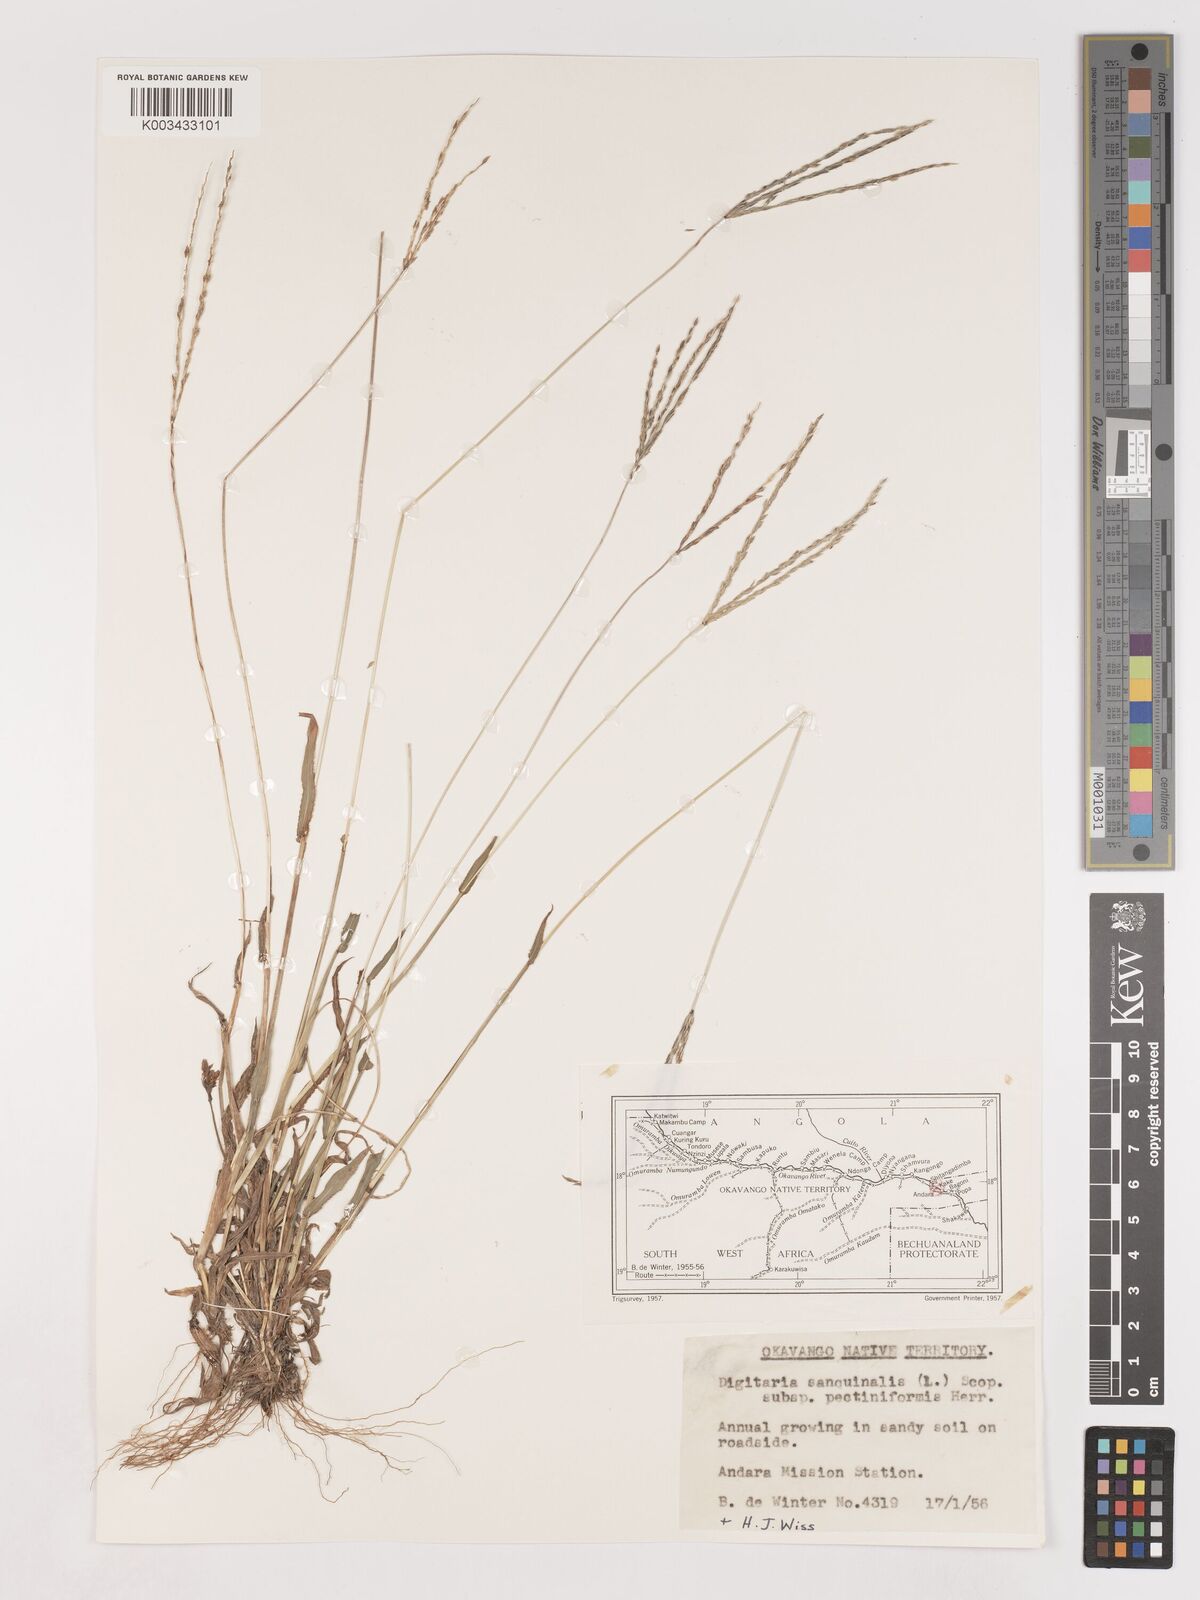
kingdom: Plantae
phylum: Tracheophyta
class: Liliopsida
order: Poales
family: Poaceae
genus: Digitaria
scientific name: Digitaria milanjiana
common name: Madagascar crabgrass
